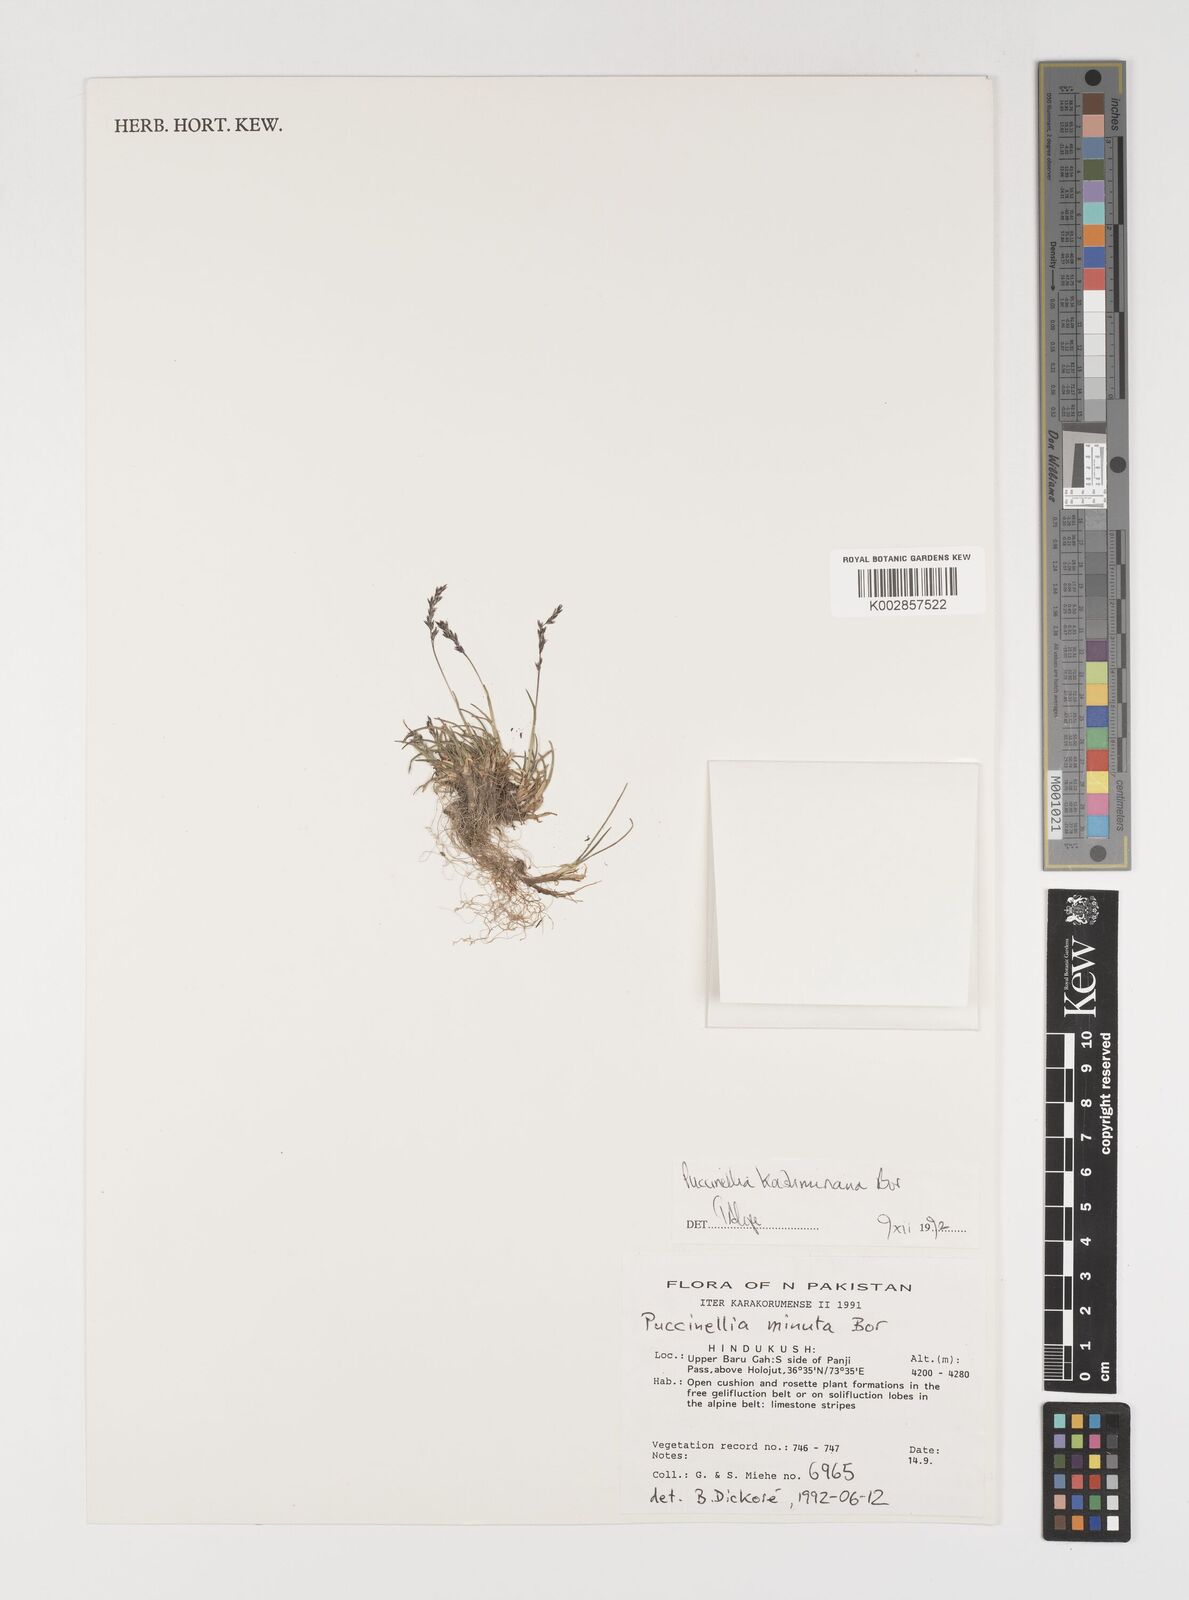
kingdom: Plantae
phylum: Tracheophyta
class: Liliopsida
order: Poales
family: Poaceae
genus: Puccinellia
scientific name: Puccinellia kashmiriana
